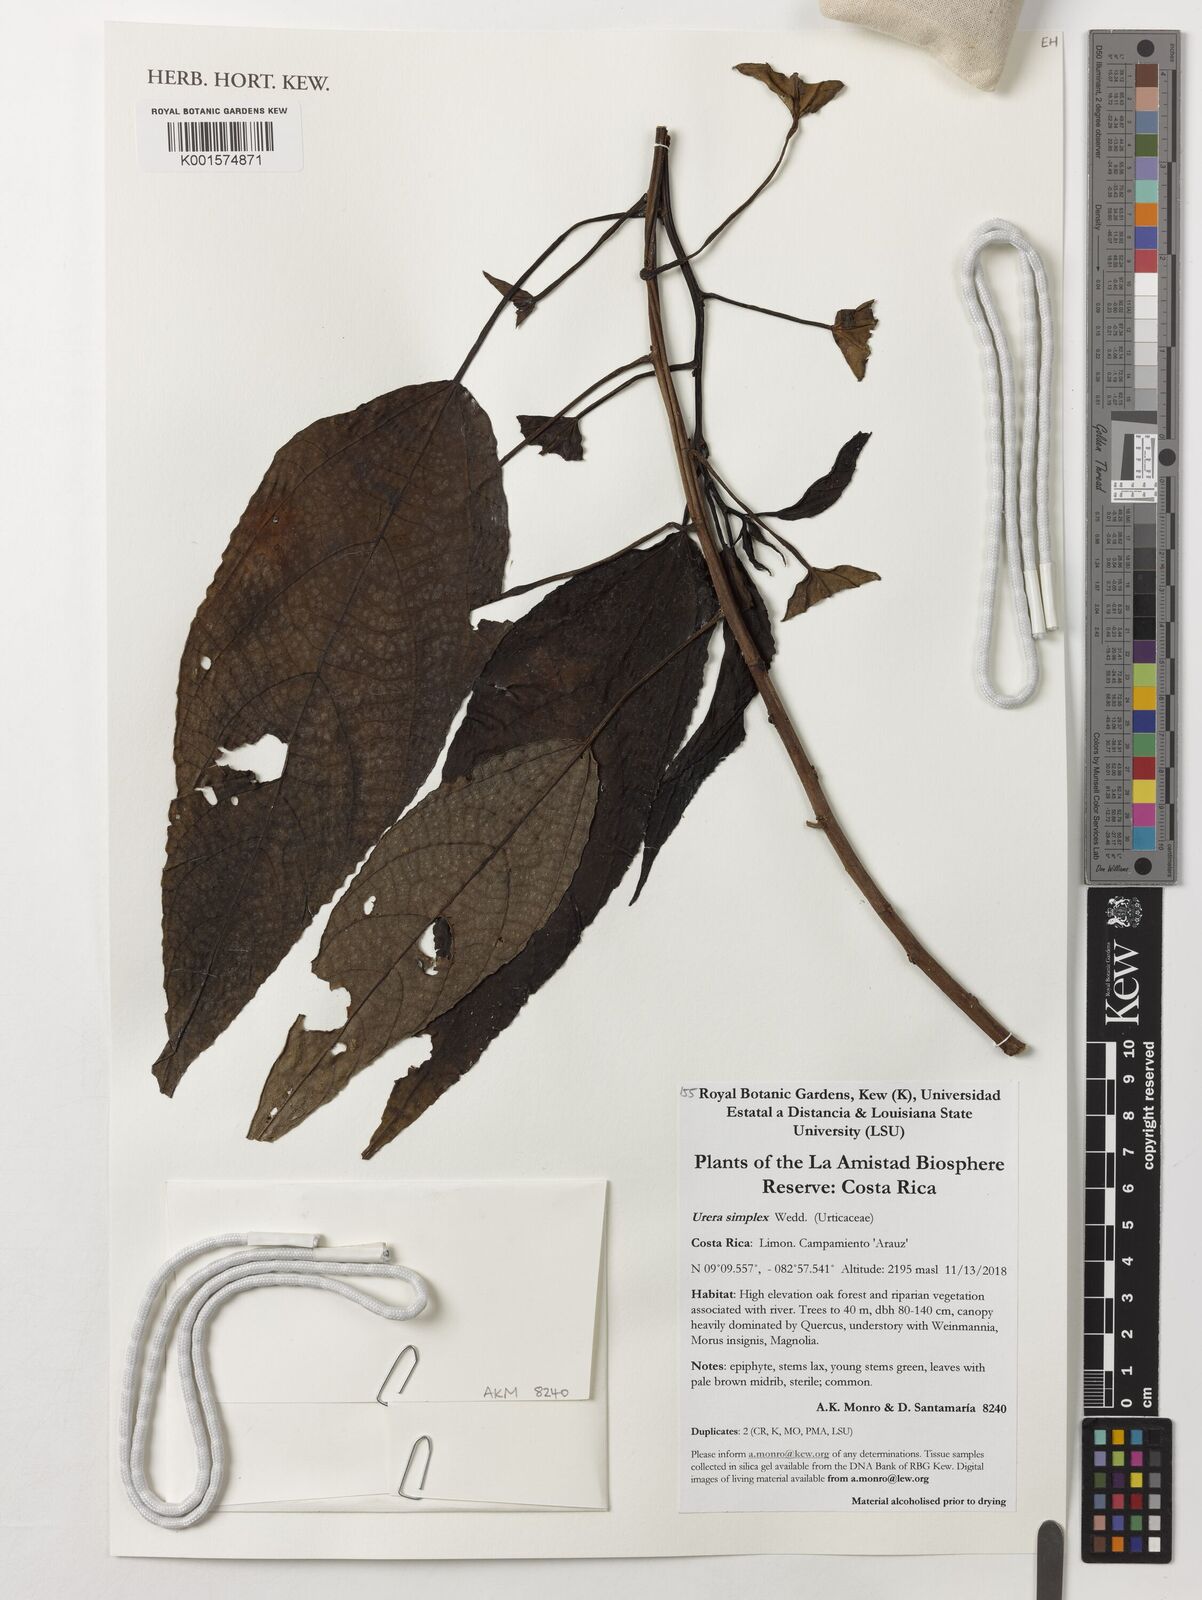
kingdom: Plantae
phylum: Tracheophyta
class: Magnoliopsida
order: Rosales
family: Urticaceae
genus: Urera
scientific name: Urera simplex
